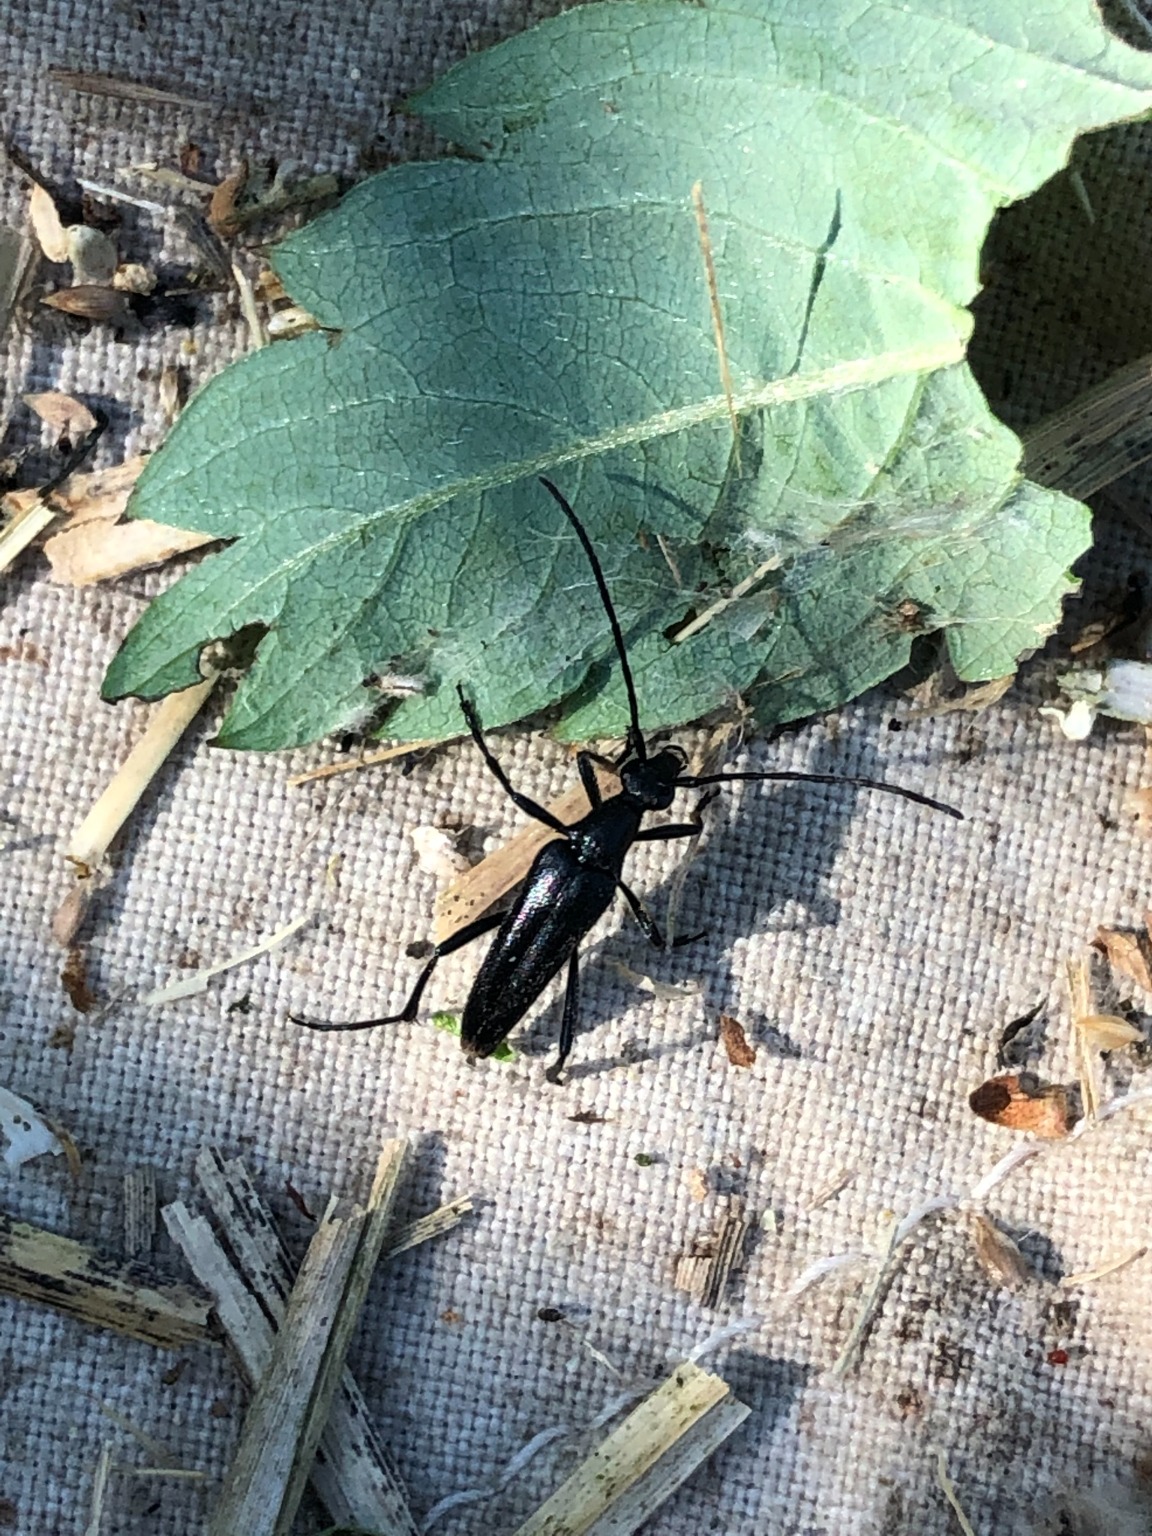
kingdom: Animalia
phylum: Arthropoda
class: Insecta
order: Coleoptera
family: Cerambycidae
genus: Stenurella
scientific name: Stenurella nigra
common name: Rødbuget spidsbuk
